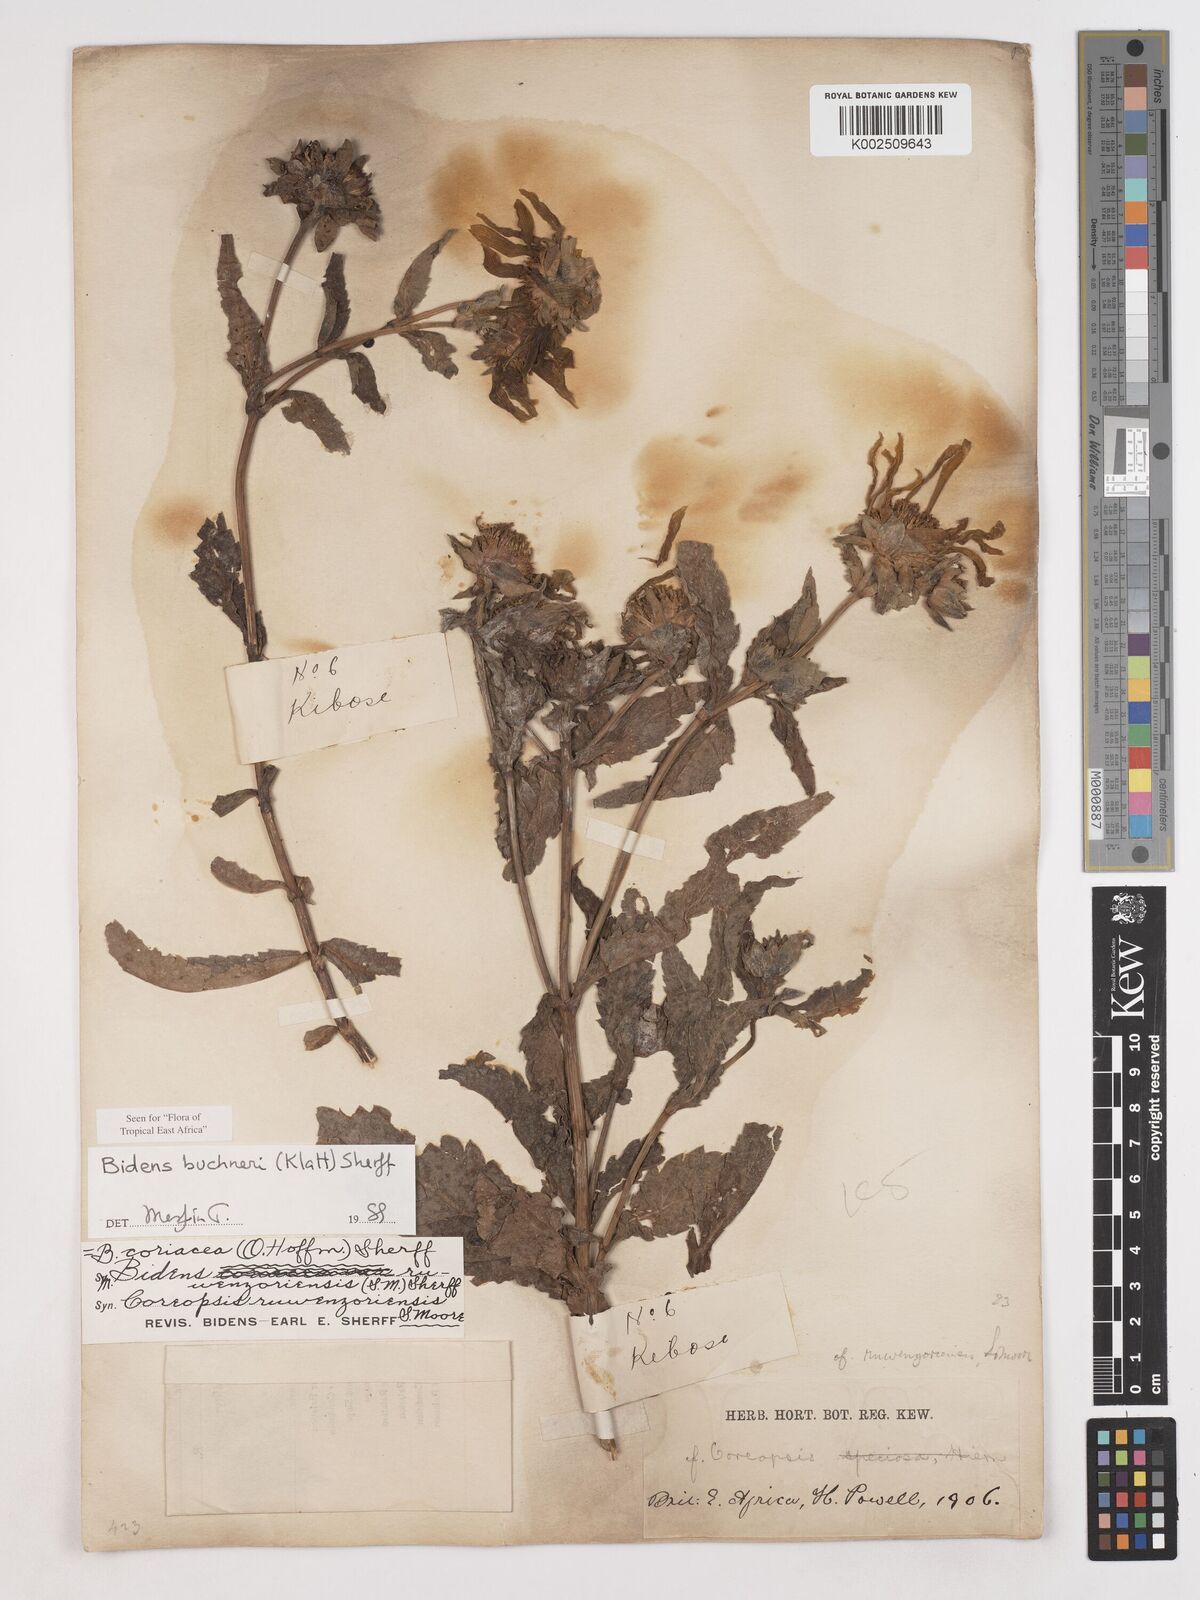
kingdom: Plantae
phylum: Tracheophyta
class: Magnoliopsida
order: Asterales
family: Asteraceae
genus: Bidens
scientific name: Bidens buchneri
